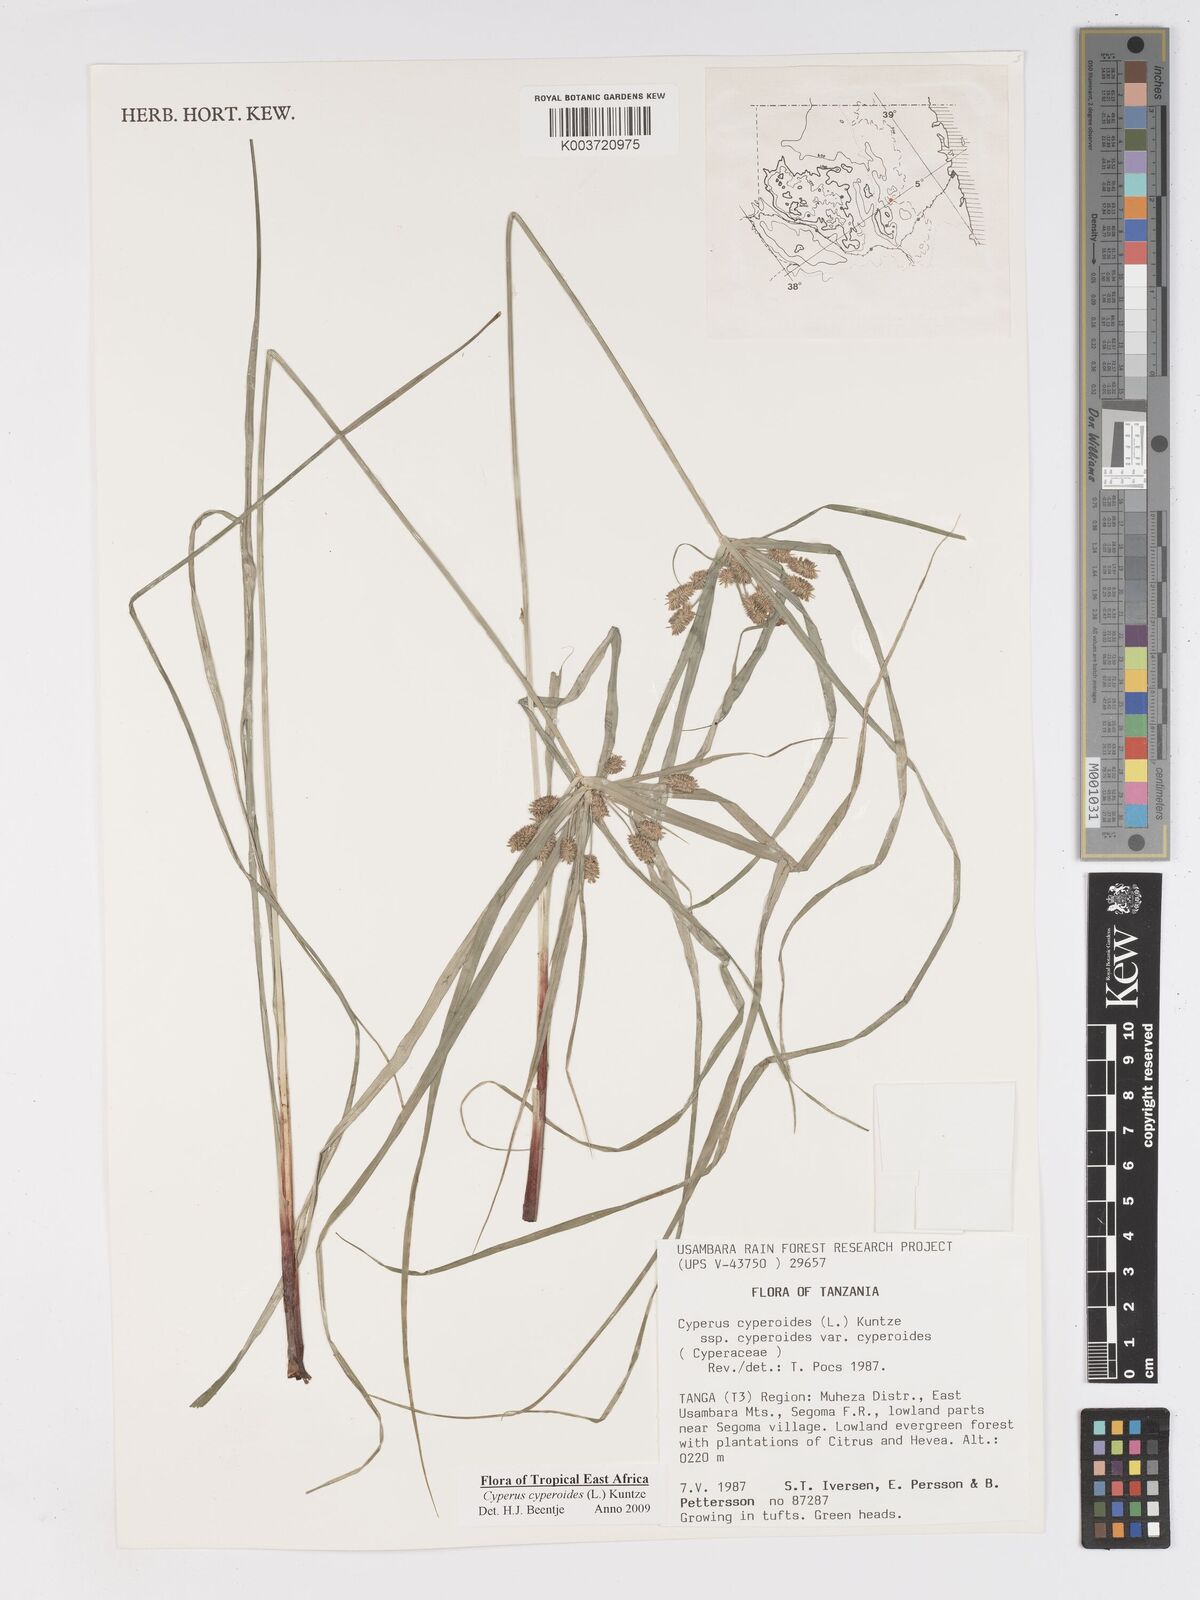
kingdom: Plantae
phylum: Tracheophyta
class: Liliopsida
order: Poales
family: Cyperaceae
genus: Cyperus
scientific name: Cyperus cyperoides
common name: Pacific island flat sedge
